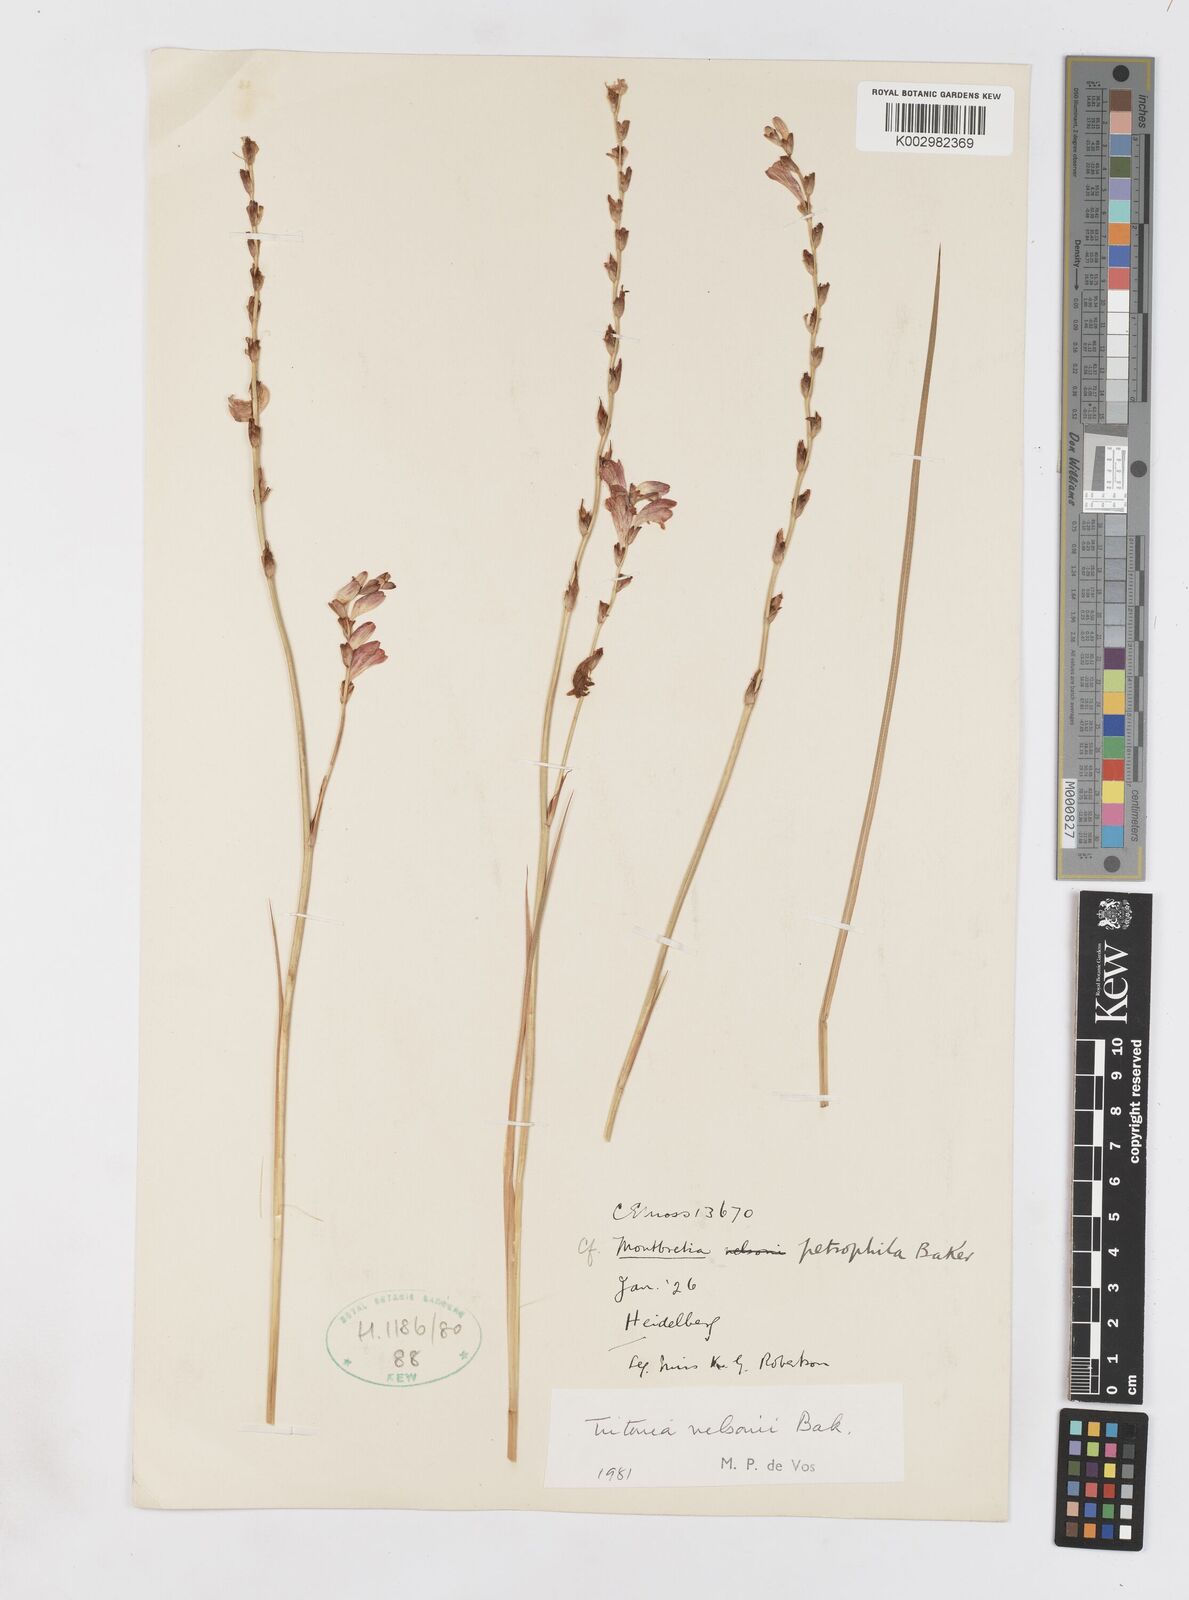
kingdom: Plantae
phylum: Tracheophyta
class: Liliopsida
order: Asparagales
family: Iridaceae
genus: Tritonia
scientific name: Tritonia nelsonii
